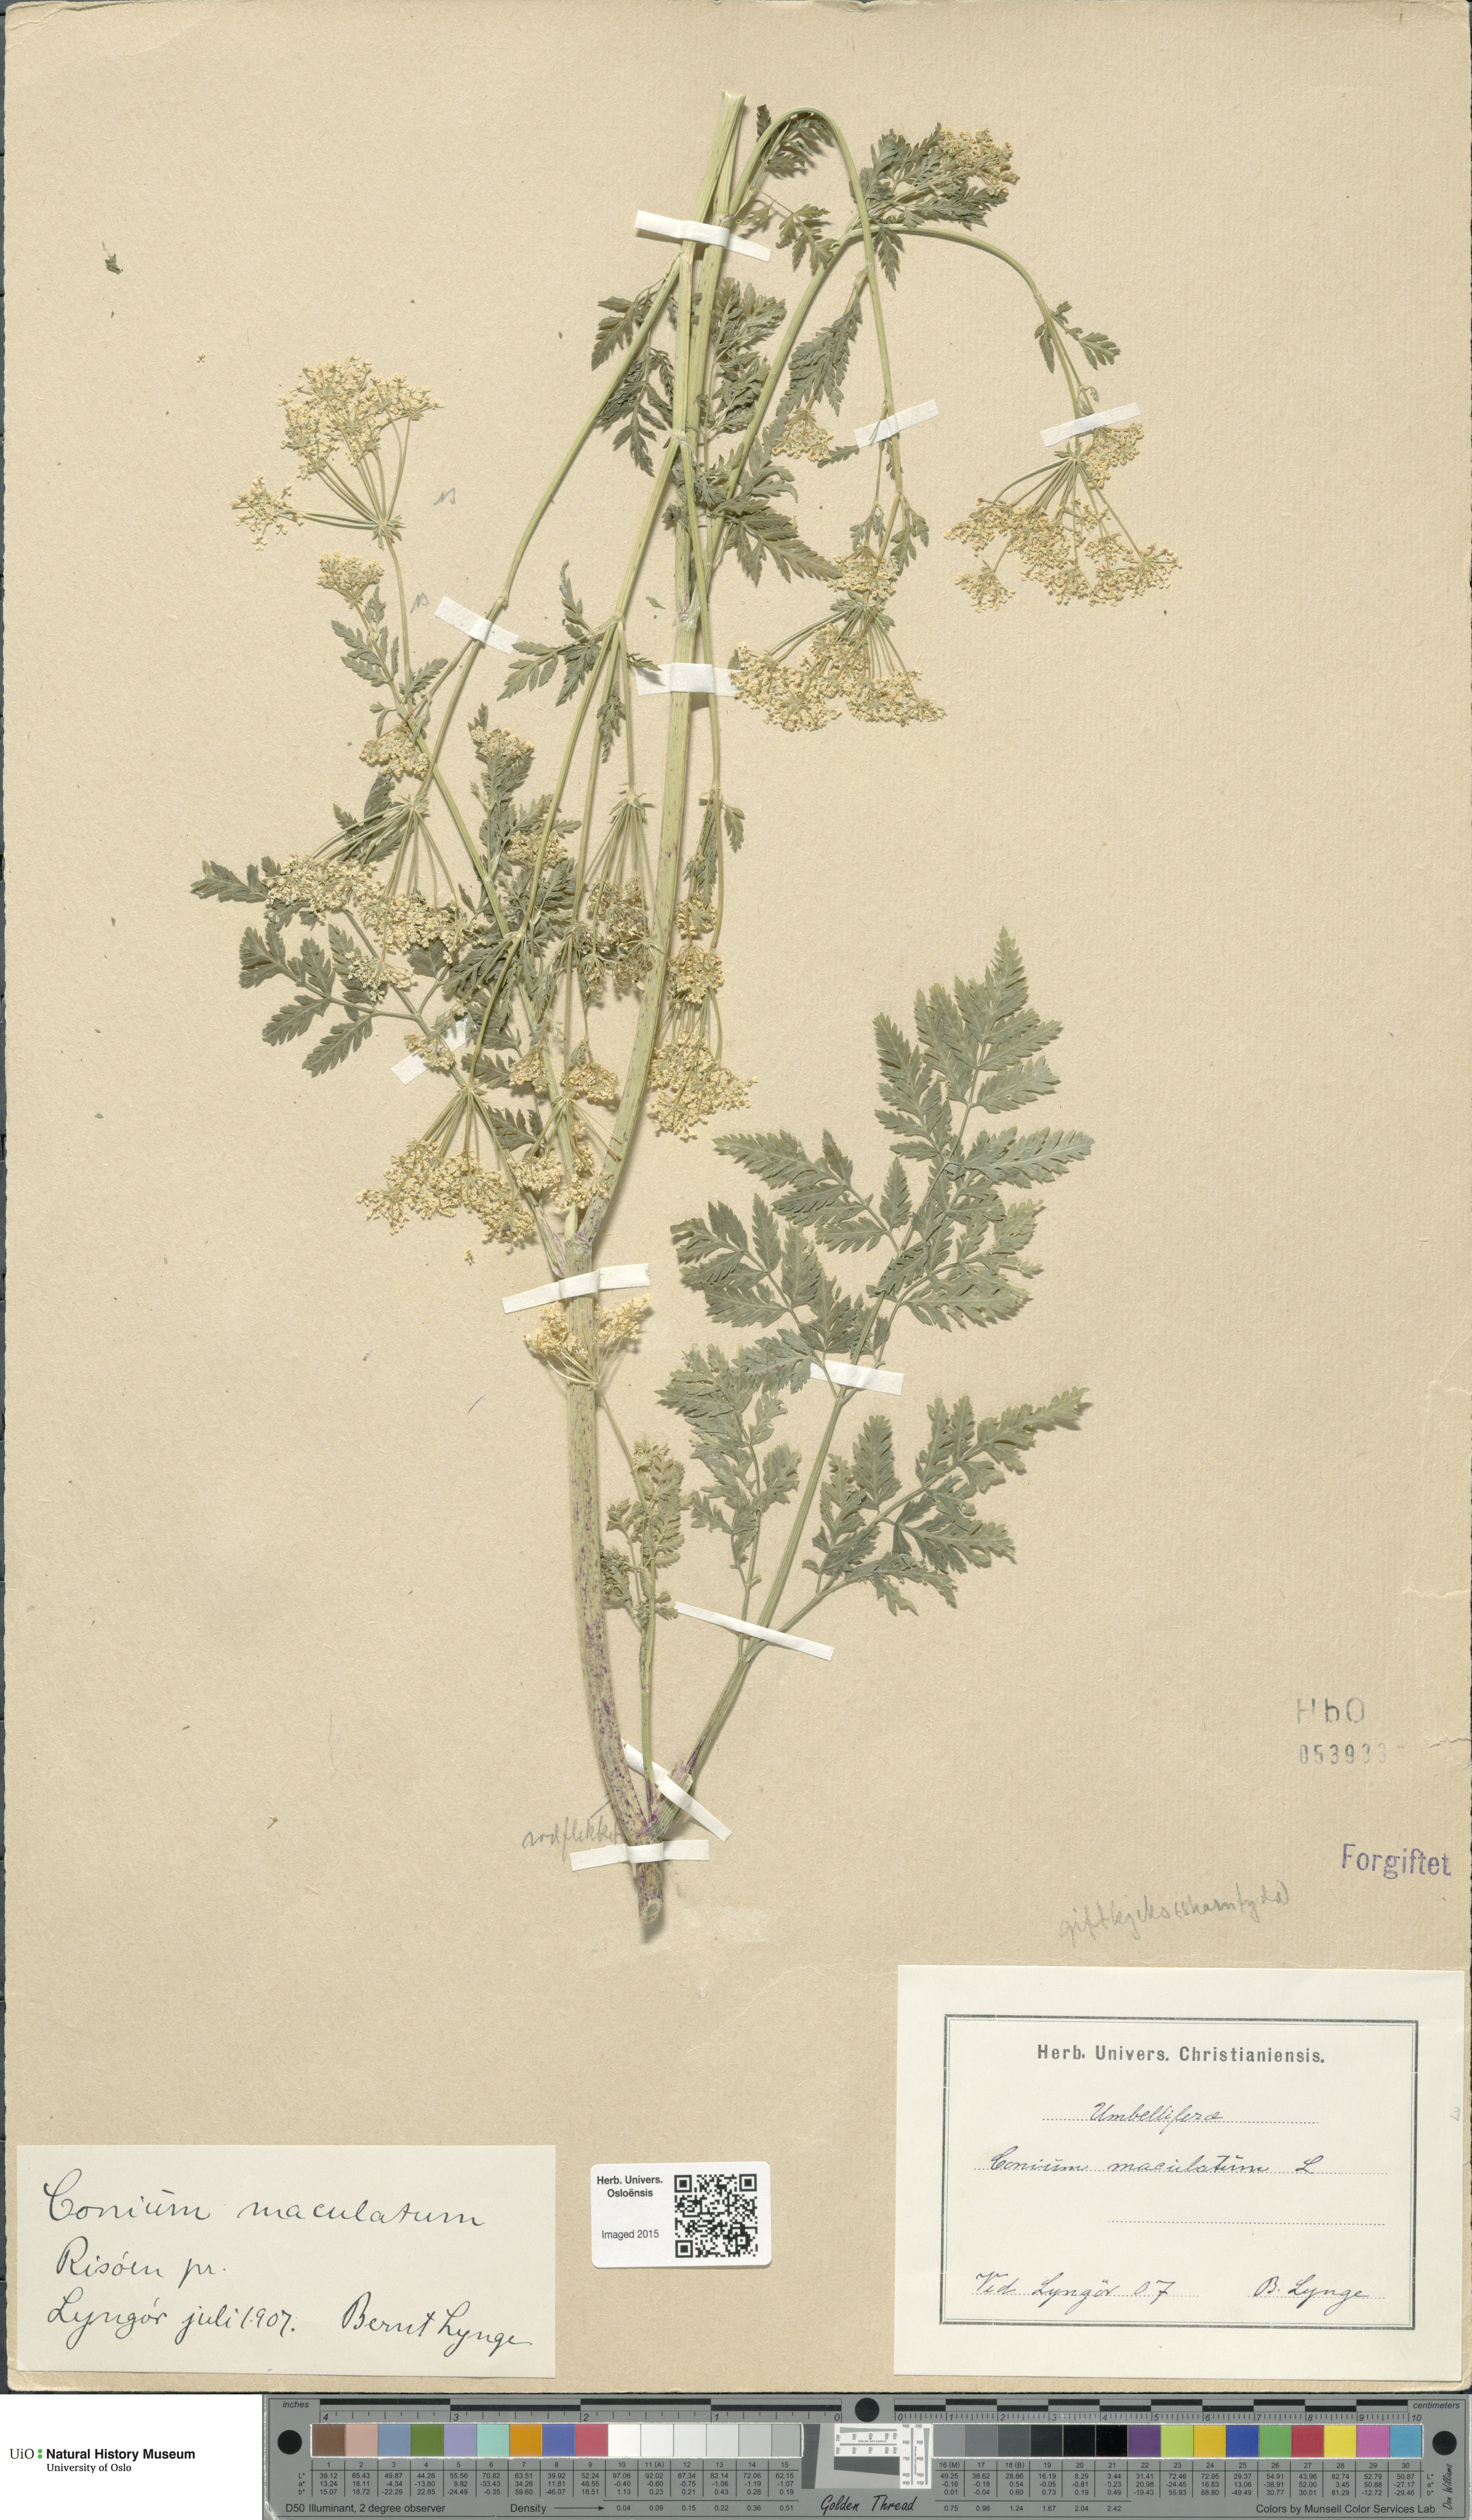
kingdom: Plantae
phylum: Tracheophyta
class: Magnoliopsida
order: Apiales
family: Apiaceae
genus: Conium
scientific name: Conium maculatum
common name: Hemlock
